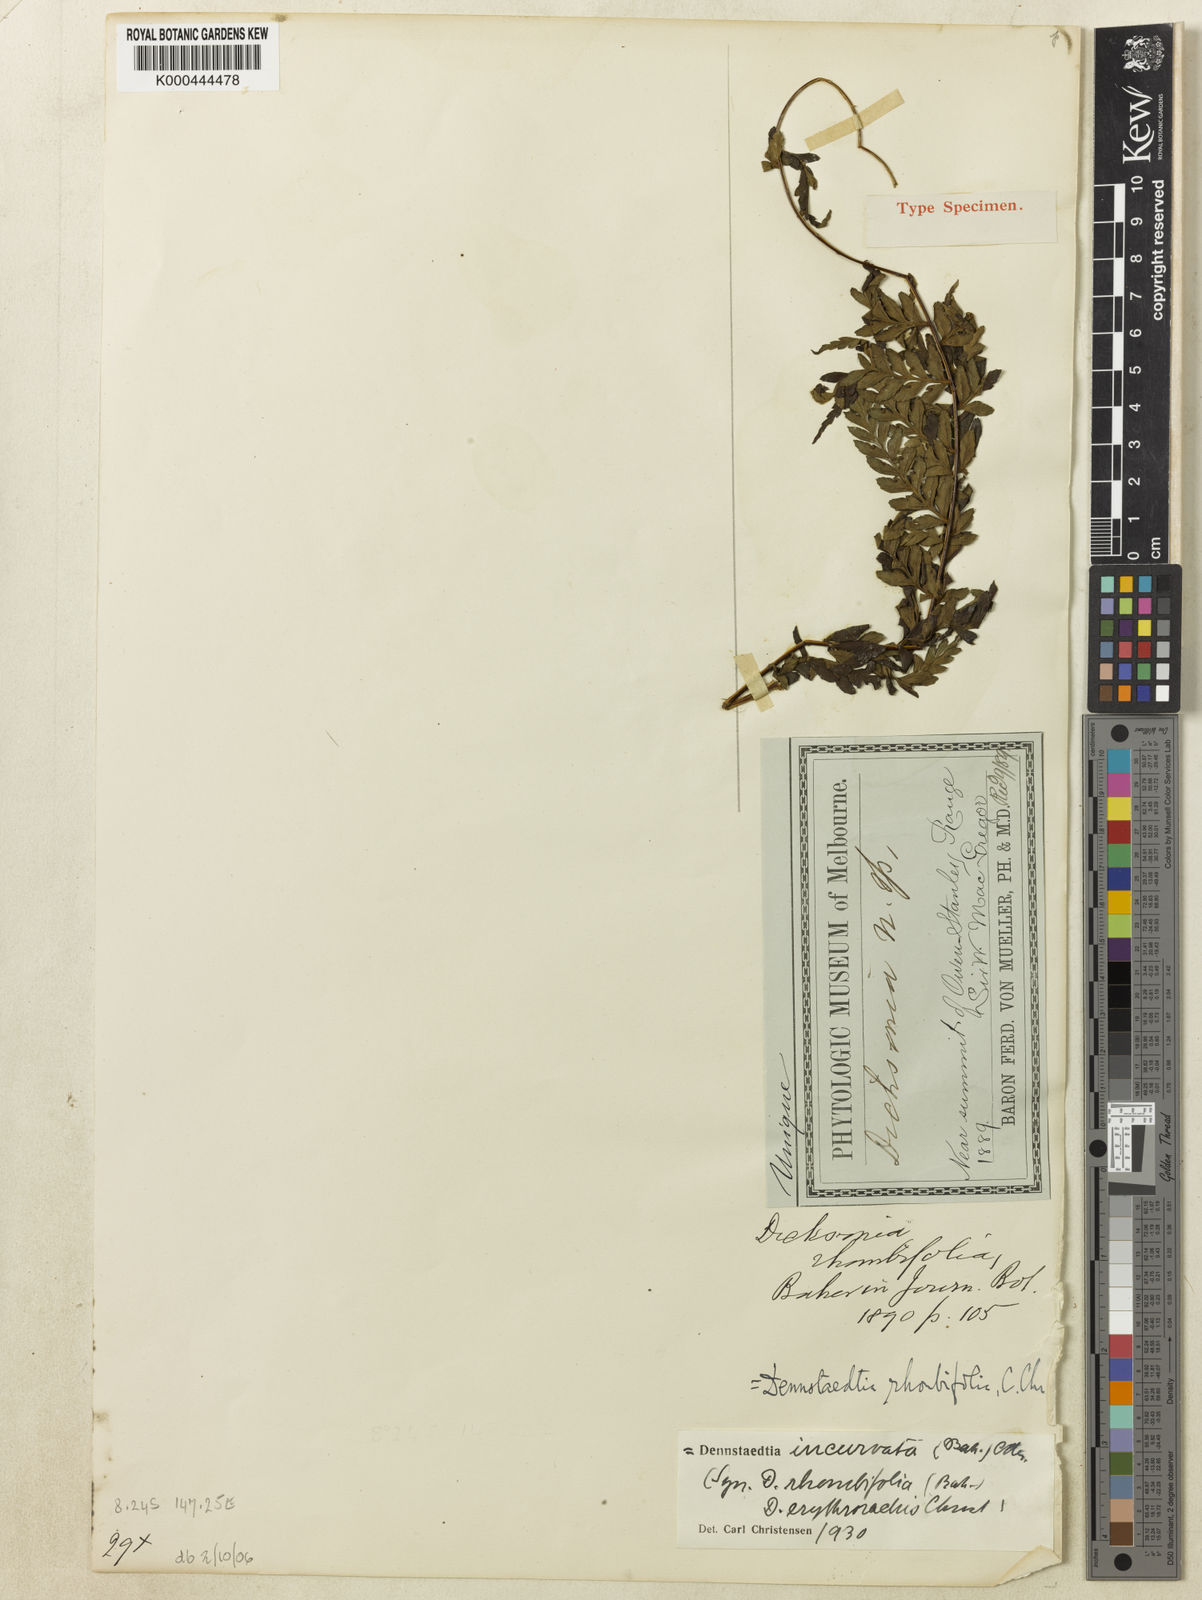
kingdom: Plantae
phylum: Tracheophyta
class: Polypodiopsida
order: Polypodiales
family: Dennstaedtiaceae
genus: Dennstaedtia
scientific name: Dennstaedtia glabrata
